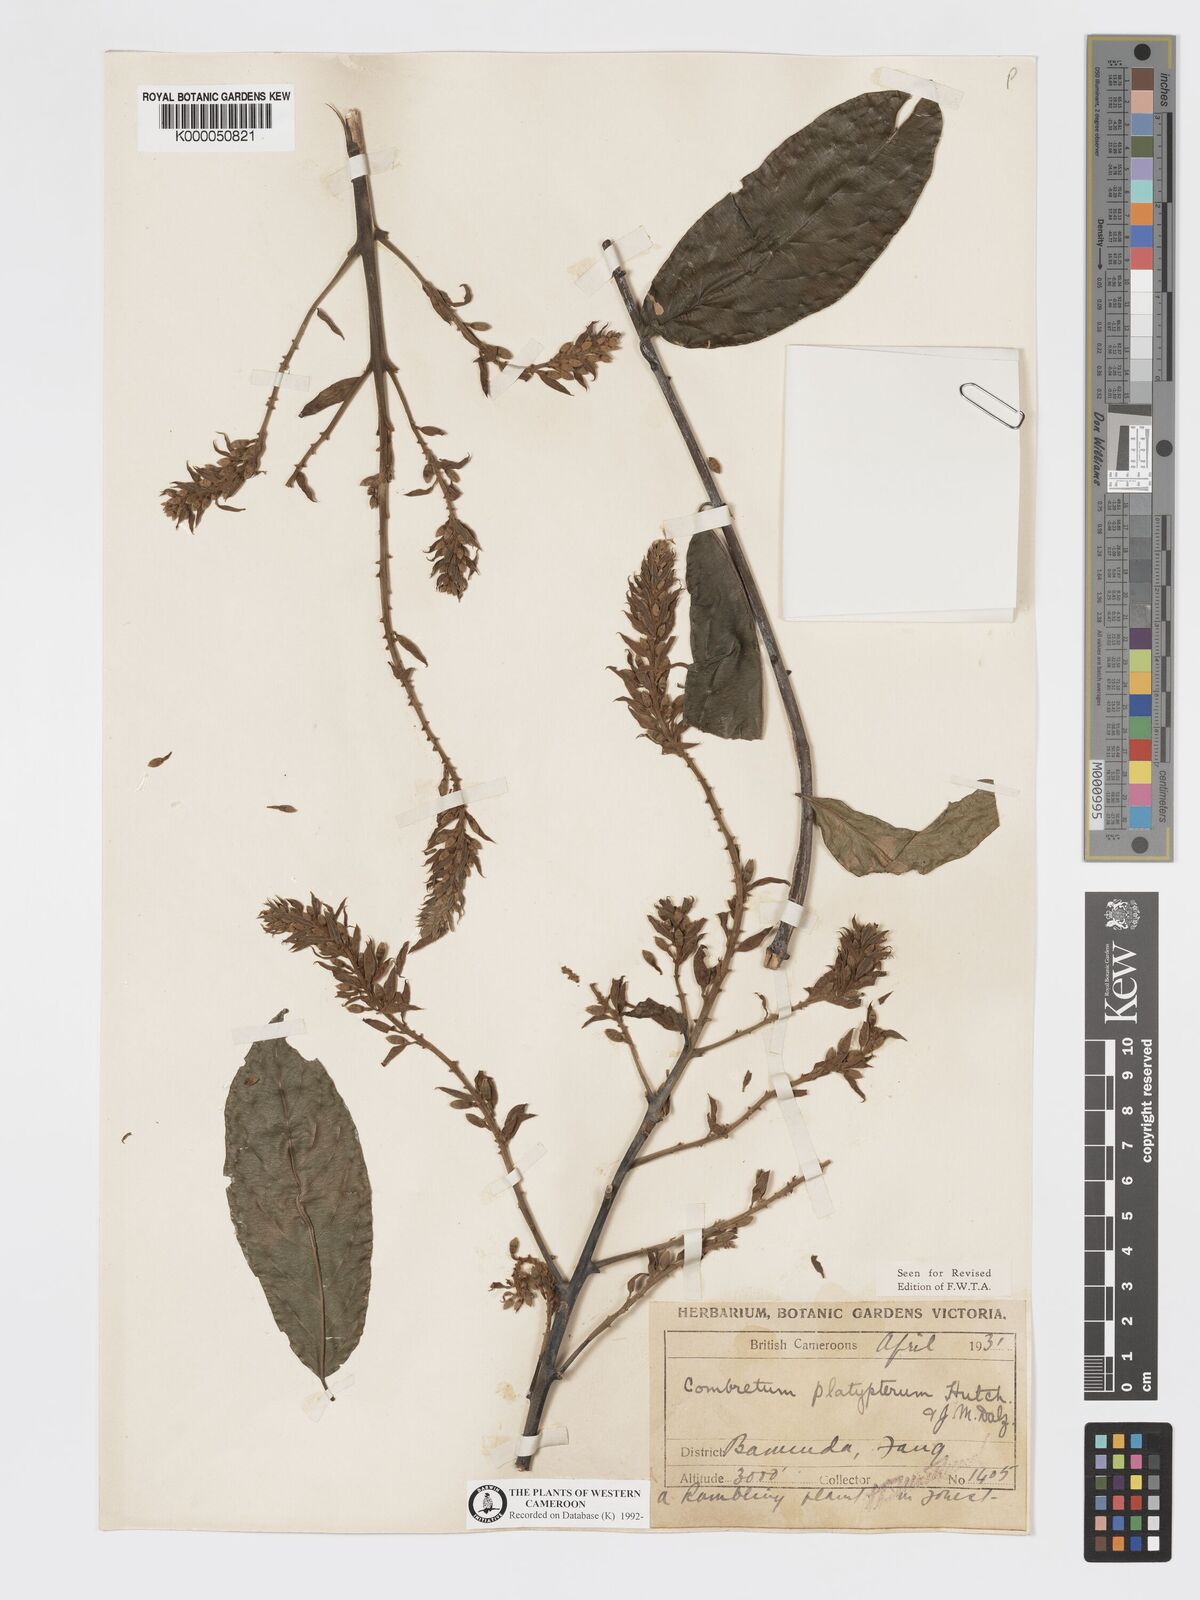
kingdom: Plantae
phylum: Tracheophyta
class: Magnoliopsida
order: Myrtales
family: Combretaceae
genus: Combretum
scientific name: Combretum platypterum
